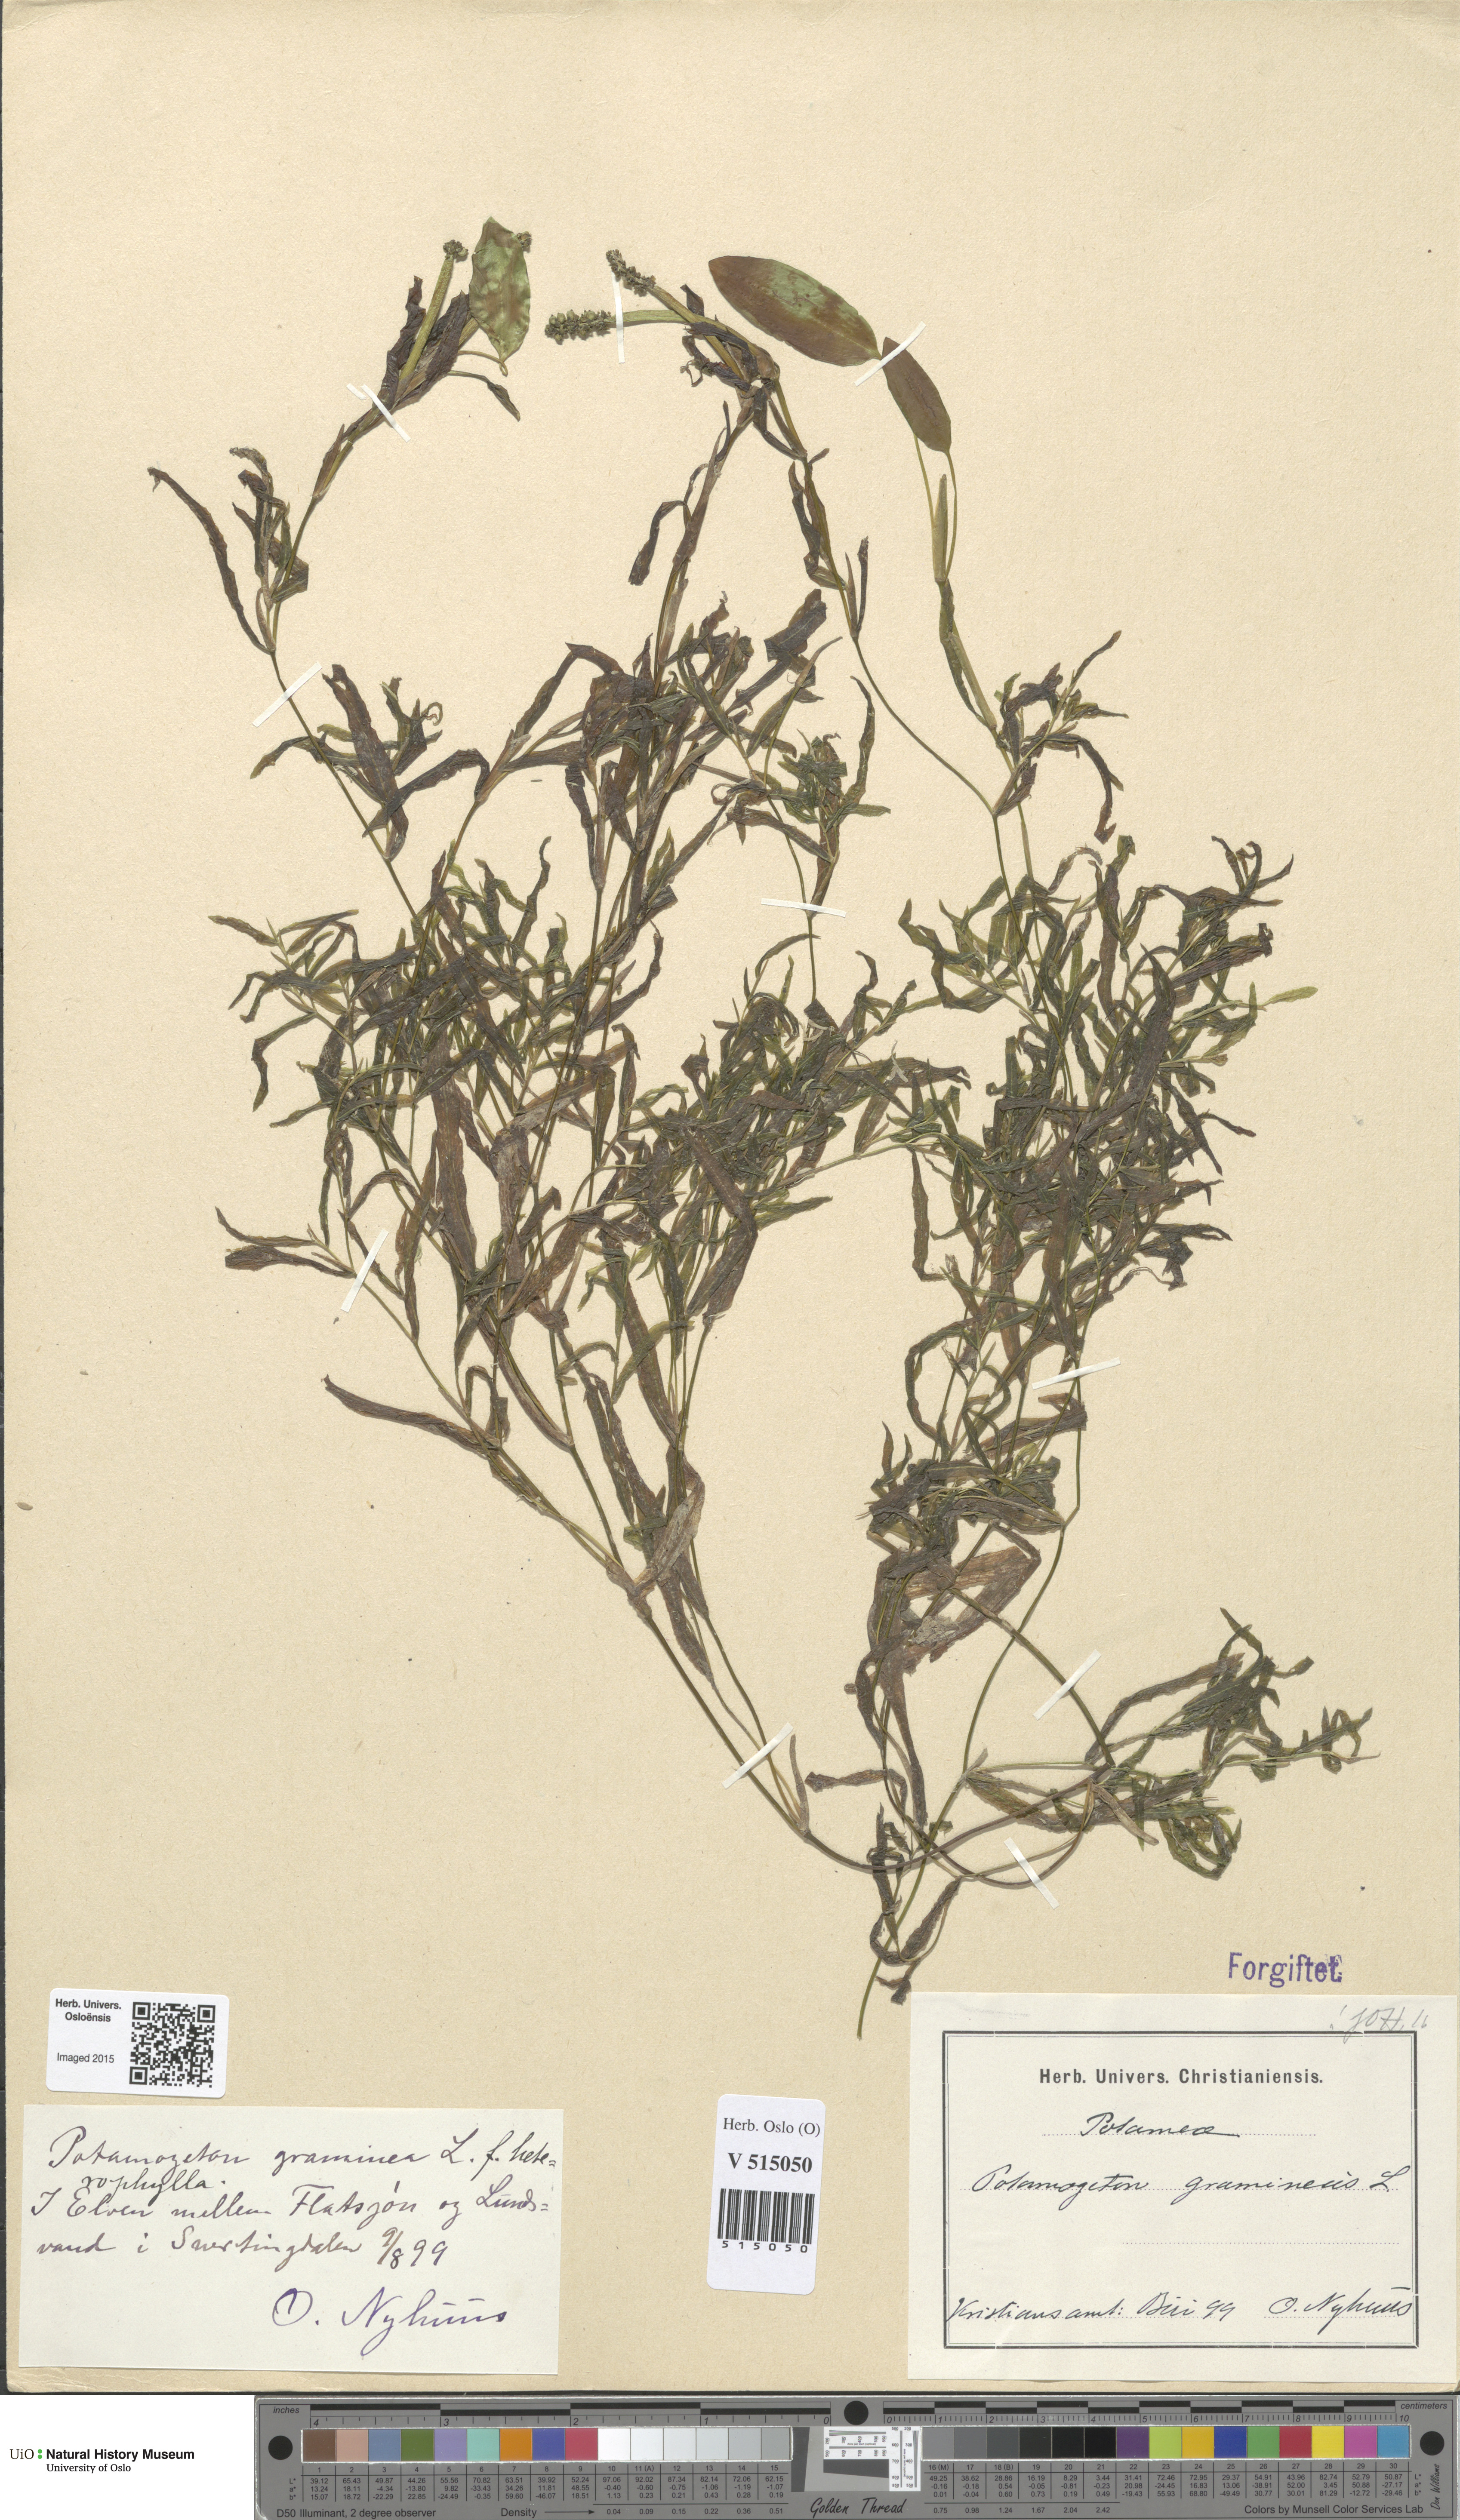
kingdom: Plantae
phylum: Tracheophyta
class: Liliopsida
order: Alismatales
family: Potamogetonaceae
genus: Potamogeton
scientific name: Potamogeton gramineus
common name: Various-leaved pondweed
